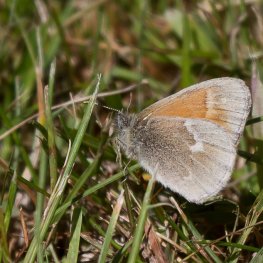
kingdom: Animalia
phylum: Arthropoda
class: Insecta
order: Lepidoptera
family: Nymphalidae
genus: Coenonympha
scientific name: Coenonympha tullia
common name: Large Heath
